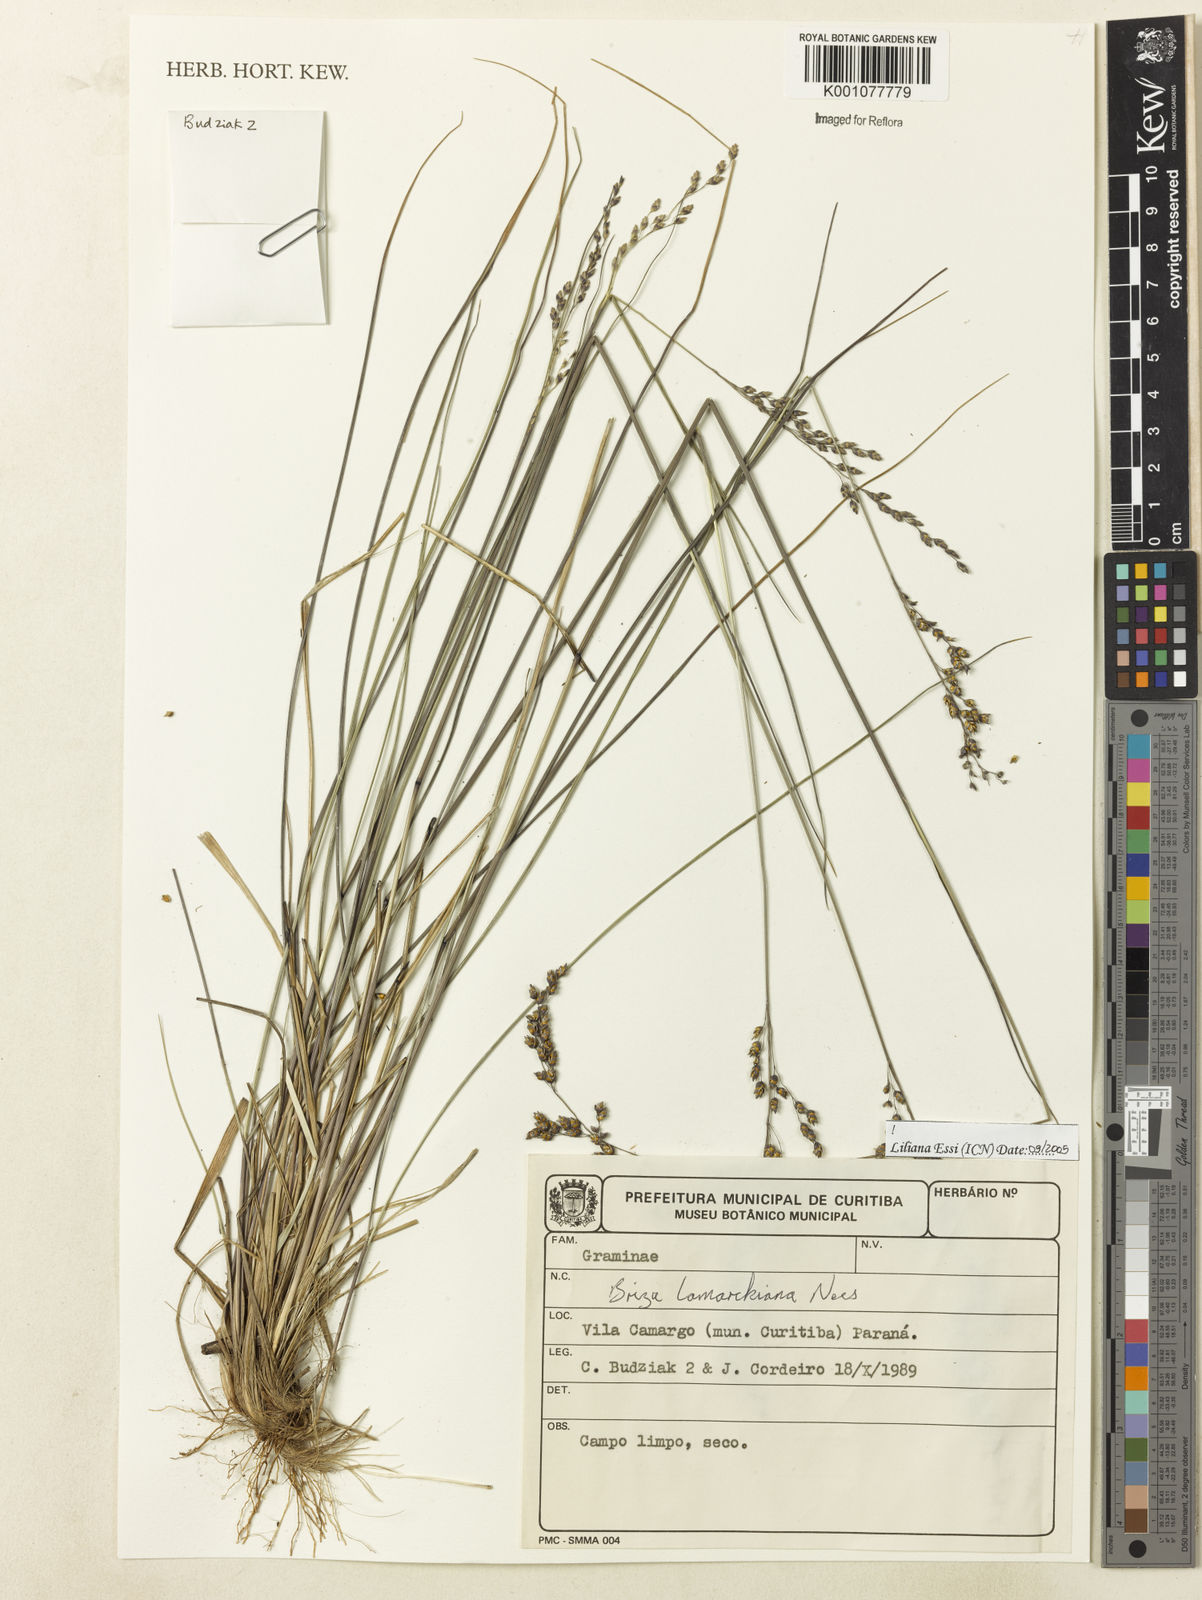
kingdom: Plantae
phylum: Tracheophyta
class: Liliopsida
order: Poales
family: Poaceae
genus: Chascolytrum
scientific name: Chascolytrum lamarckianum
